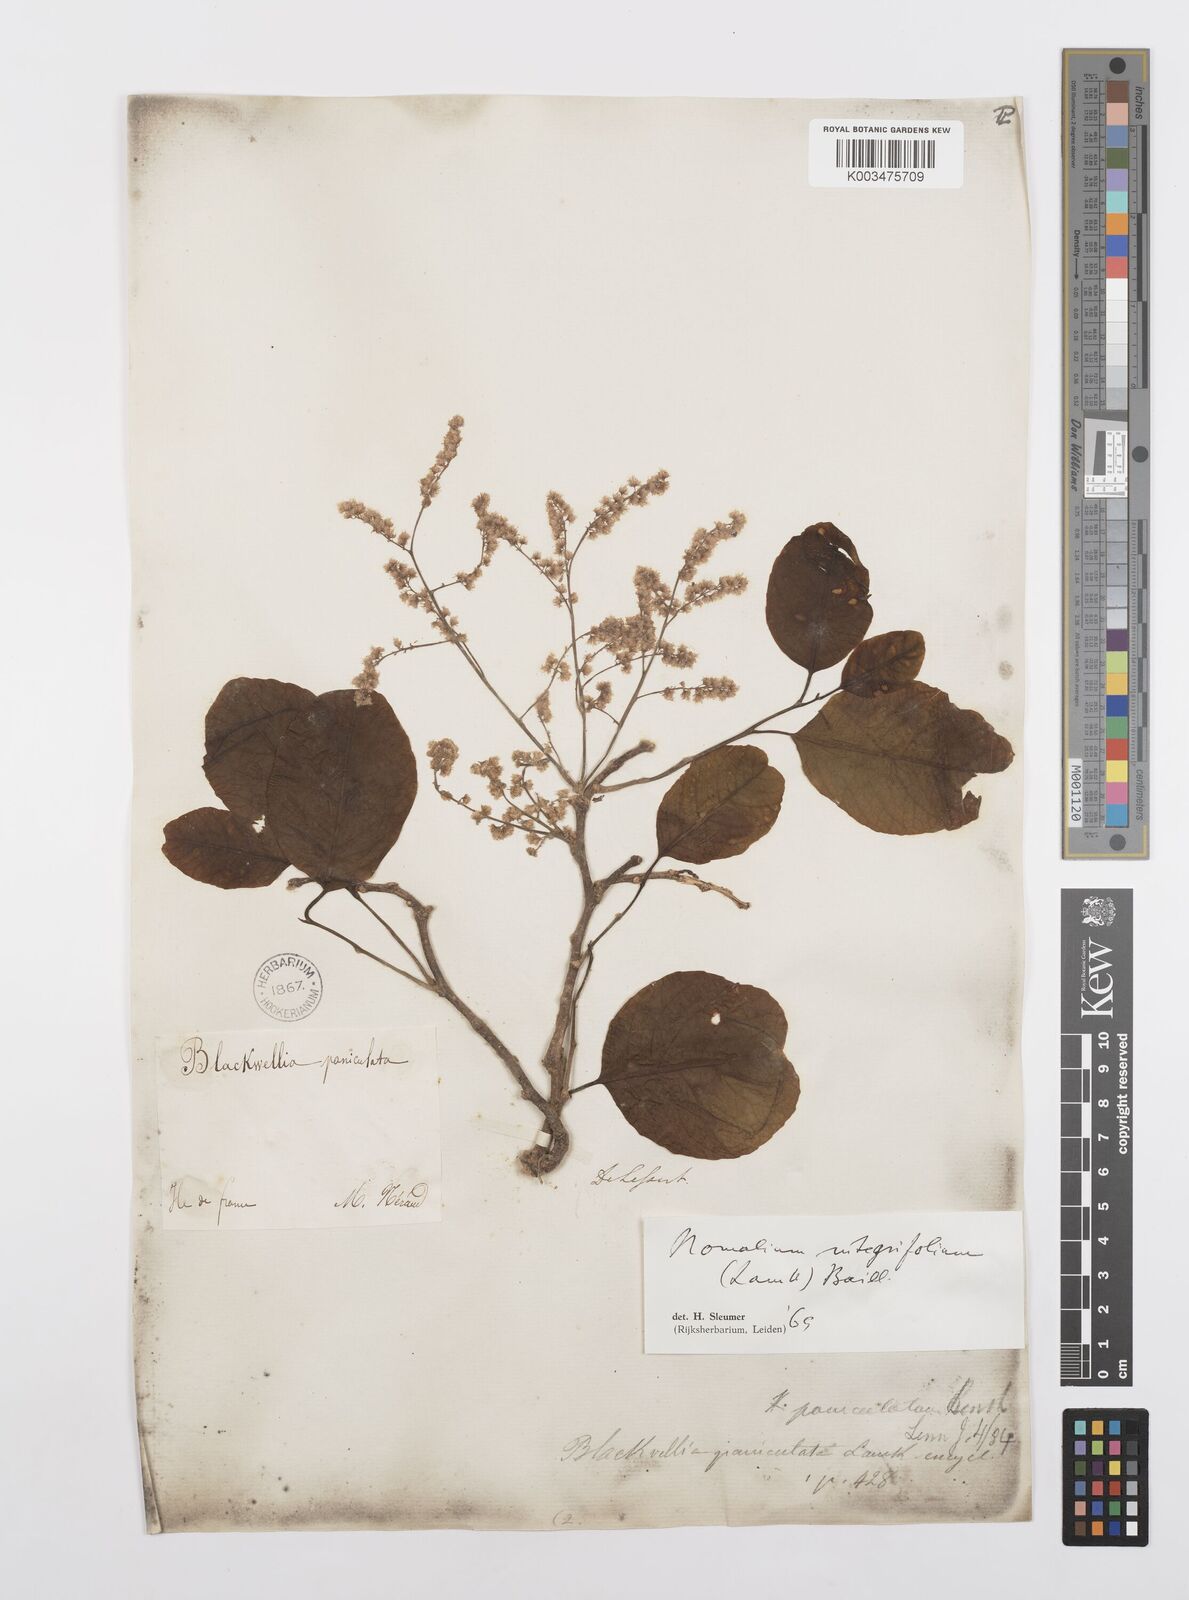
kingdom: Plantae
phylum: Tracheophyta
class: Magnoliopsida
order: Malpighiales
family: Salicaceae
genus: Homalium
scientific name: Homalium integrifolium
